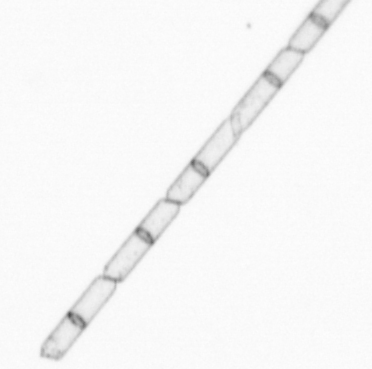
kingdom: Chromista
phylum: Ochrophyta
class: Bacillariophyceae
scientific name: Bacillariophyceae
